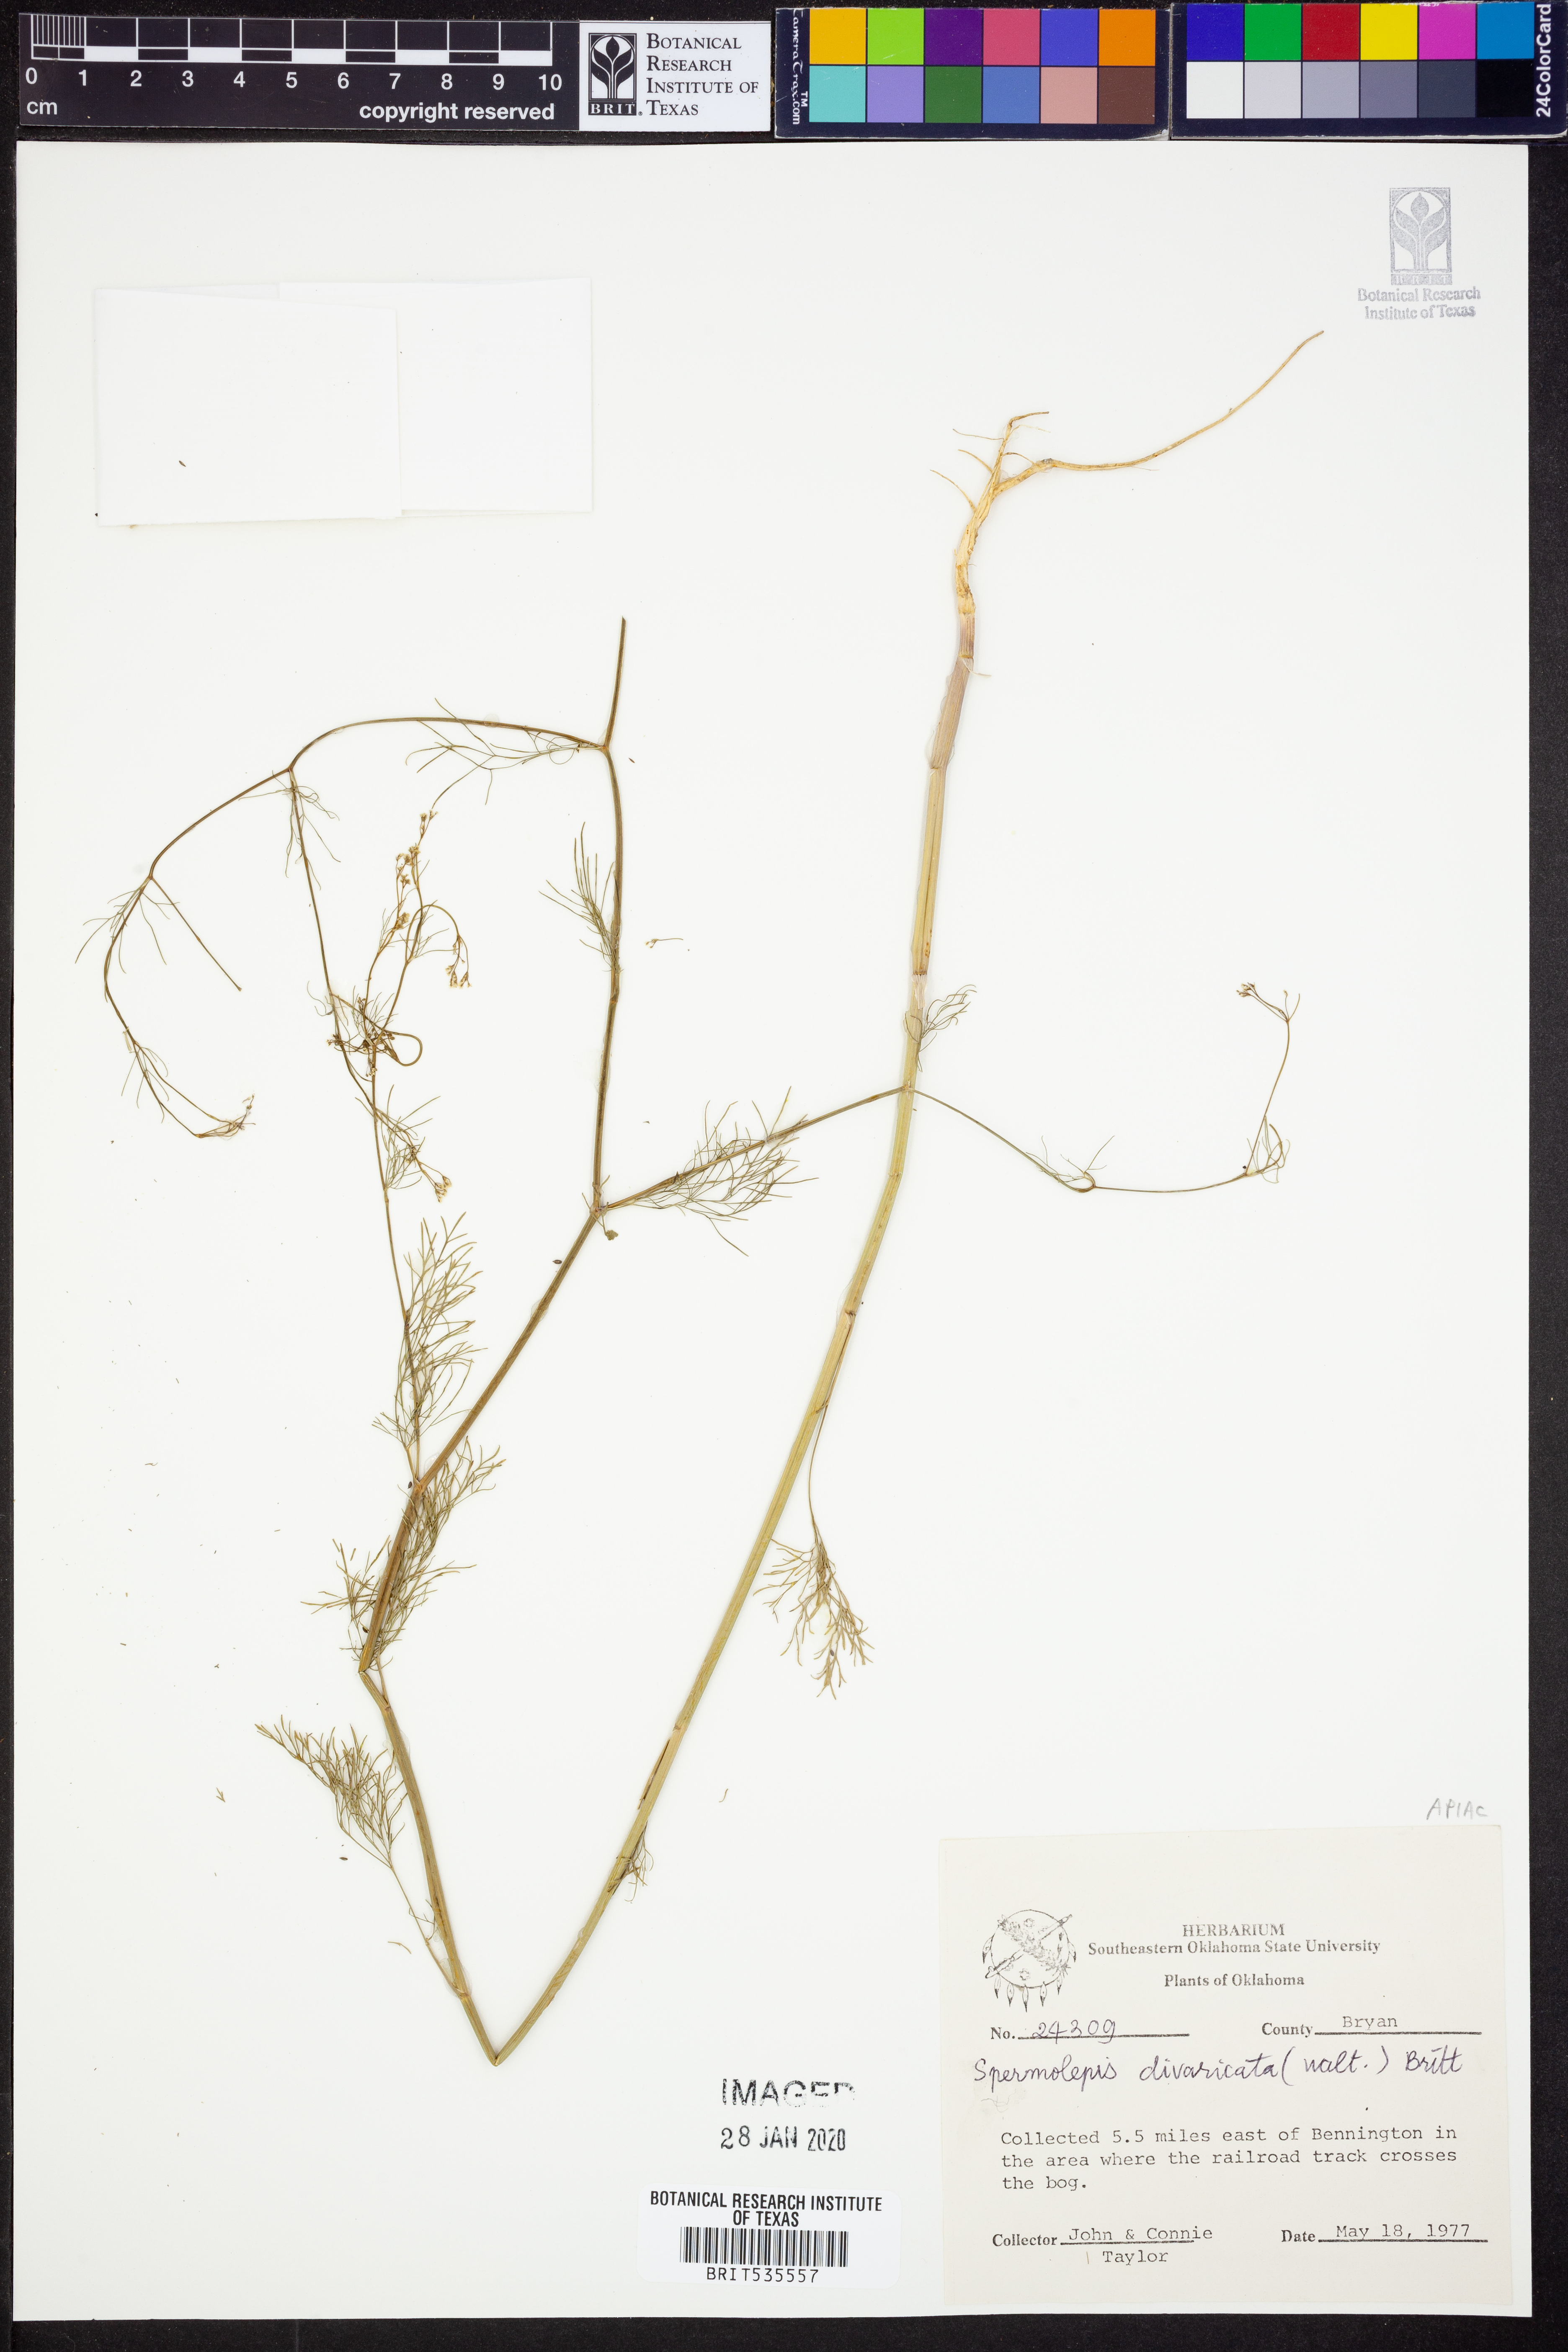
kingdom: Plantae
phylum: Tracheophyta
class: Magnoliopsida
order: Apiales
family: Apiaceae
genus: Spermolepis
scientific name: Spermolepis divaricata
